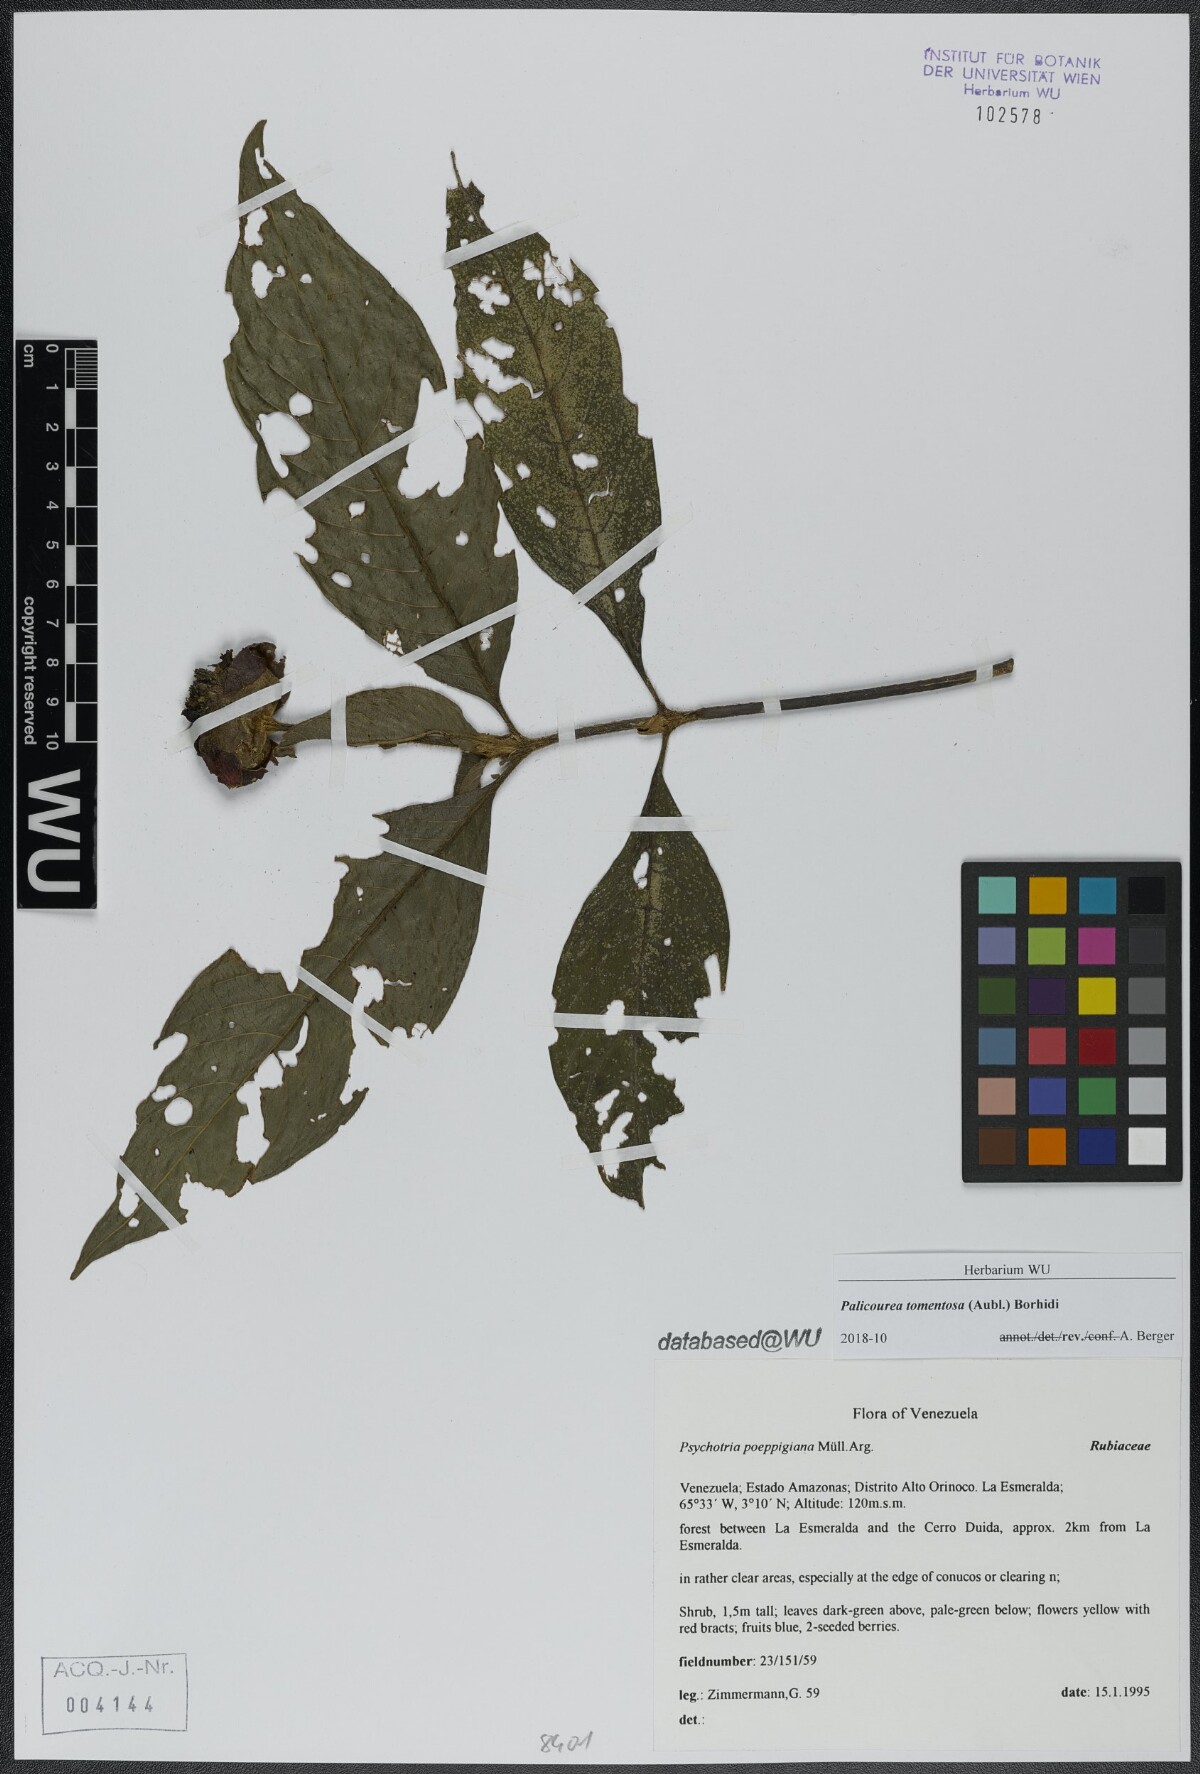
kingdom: Plantae
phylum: Tracheophyta
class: Magnoliopsida
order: Gentianales
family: Rubiaceae
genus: Palicourea
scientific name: Palicourea tomentosa
